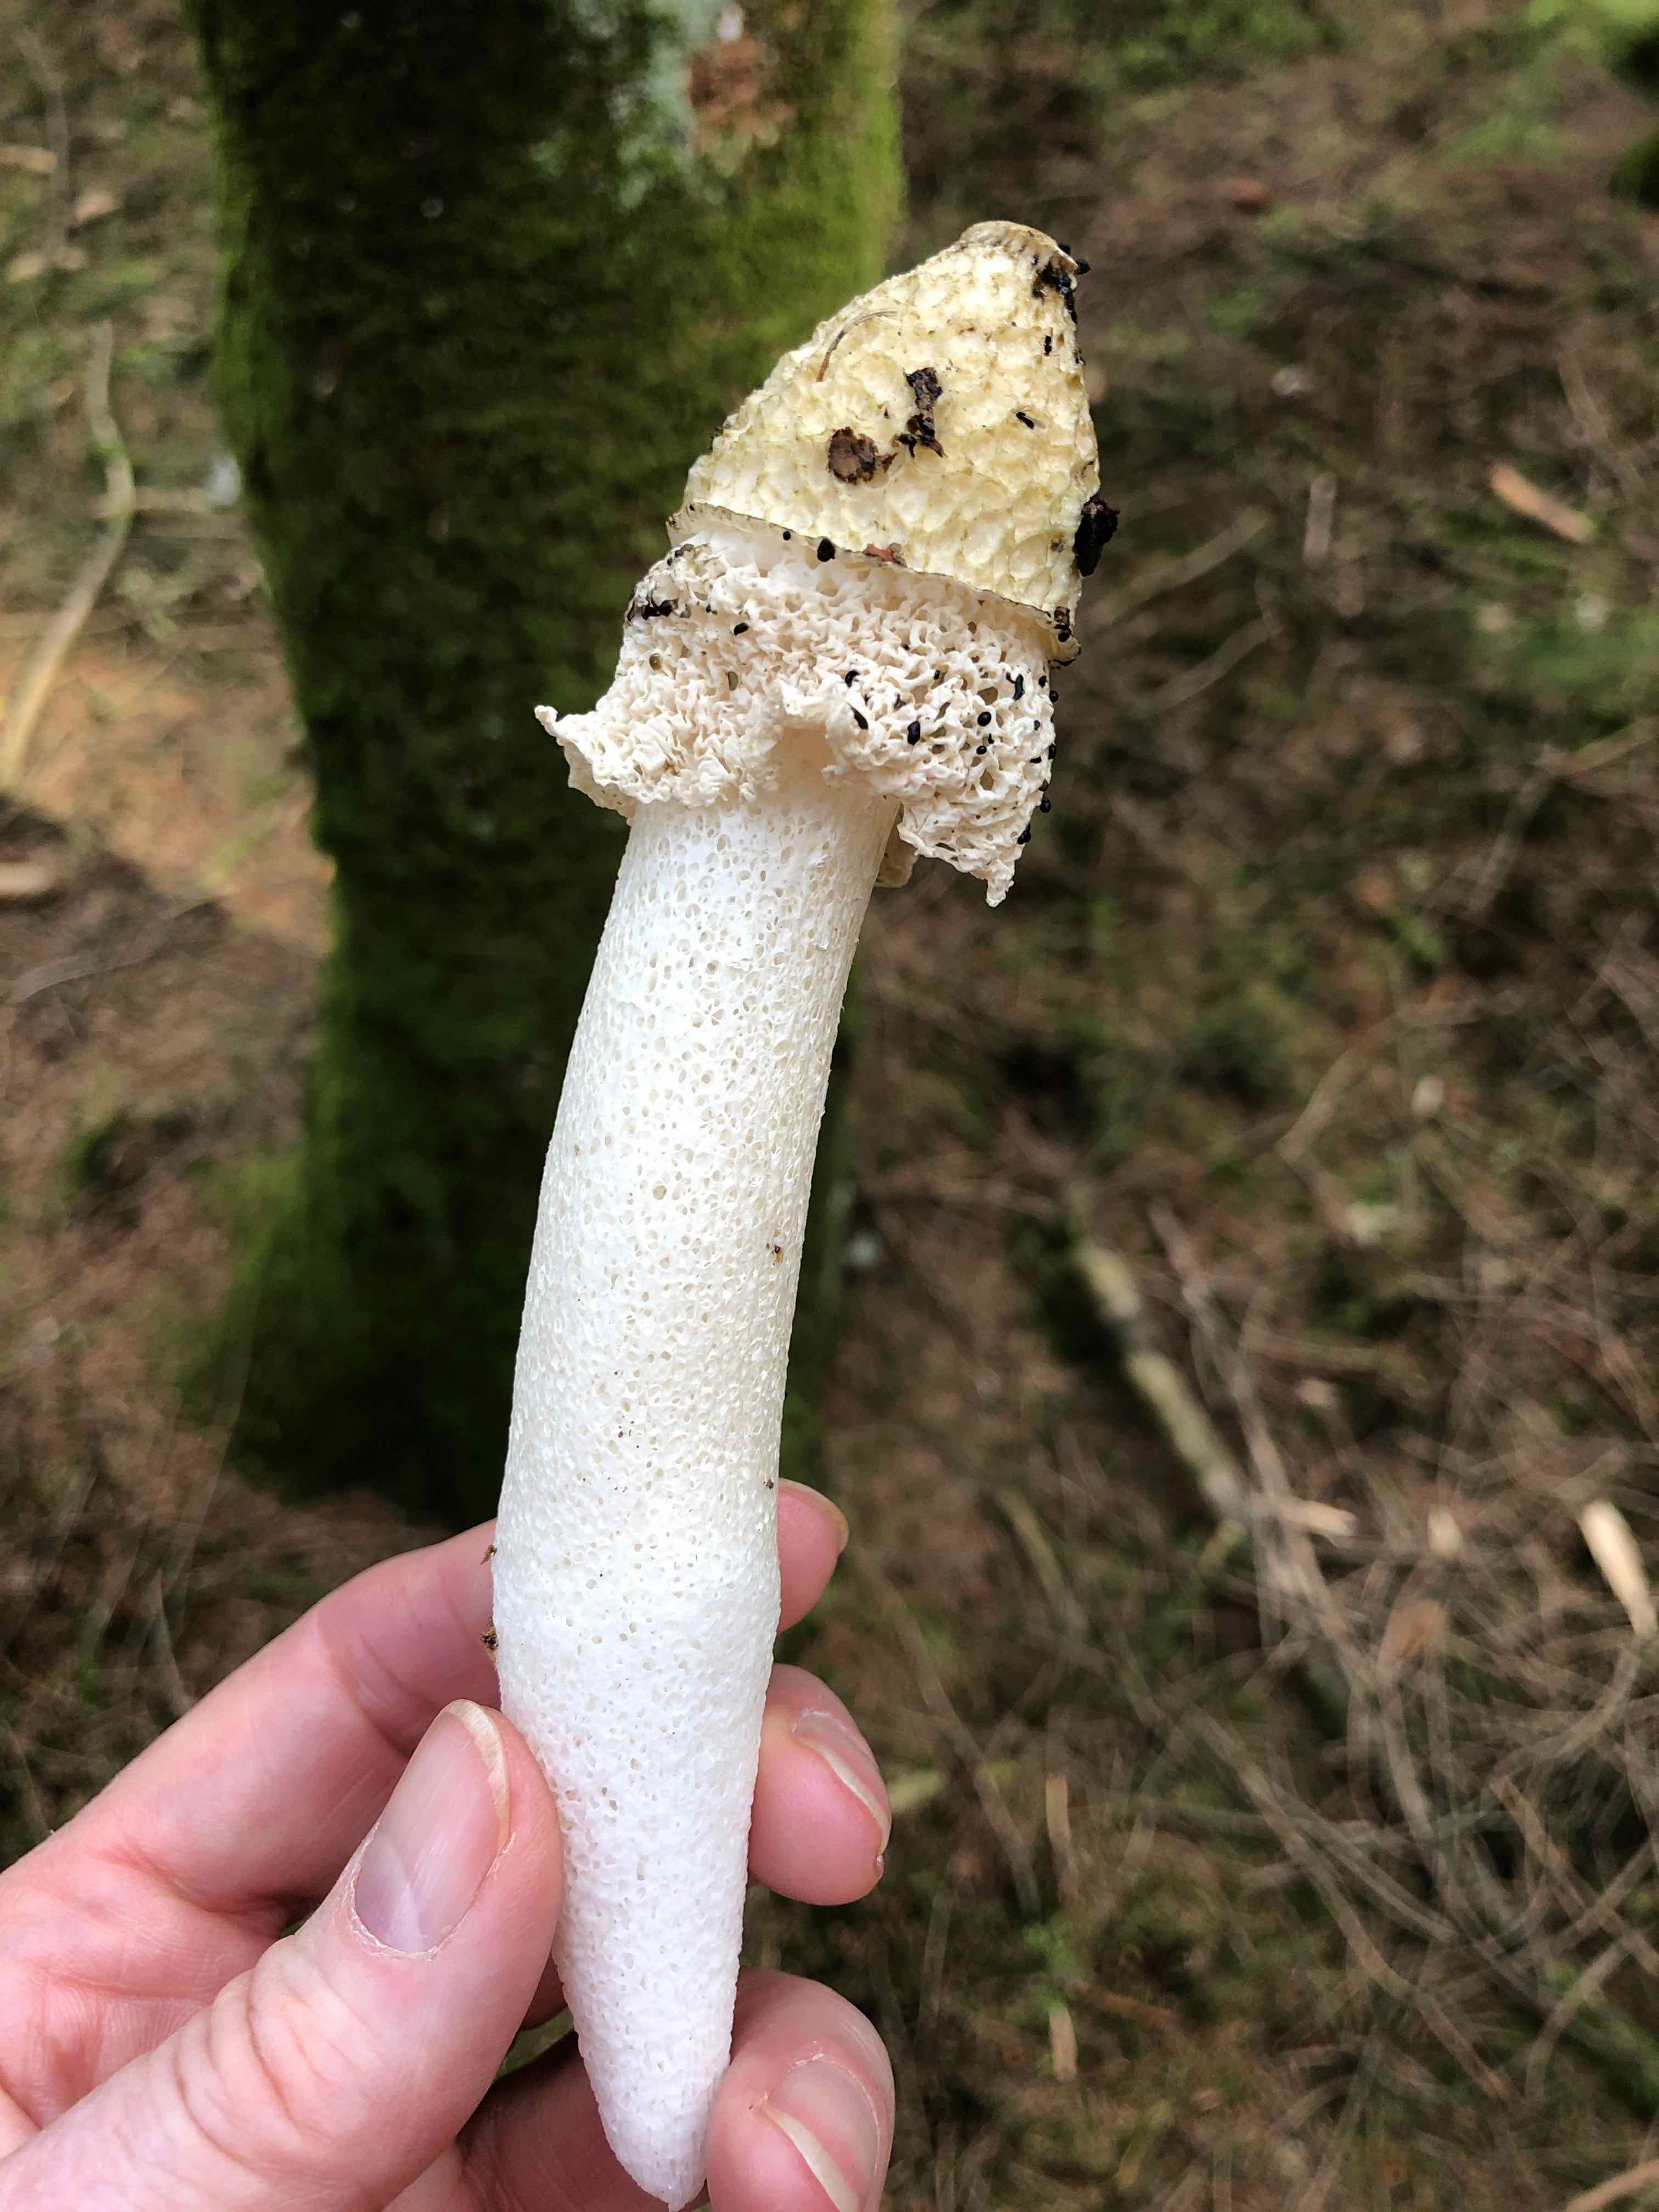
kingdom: Fungi
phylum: Basidiomycota
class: Agaricomycetes
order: Phallales
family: Phallaceae
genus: Phallus
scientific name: Phallus impudicus
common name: Common stinkhorn
